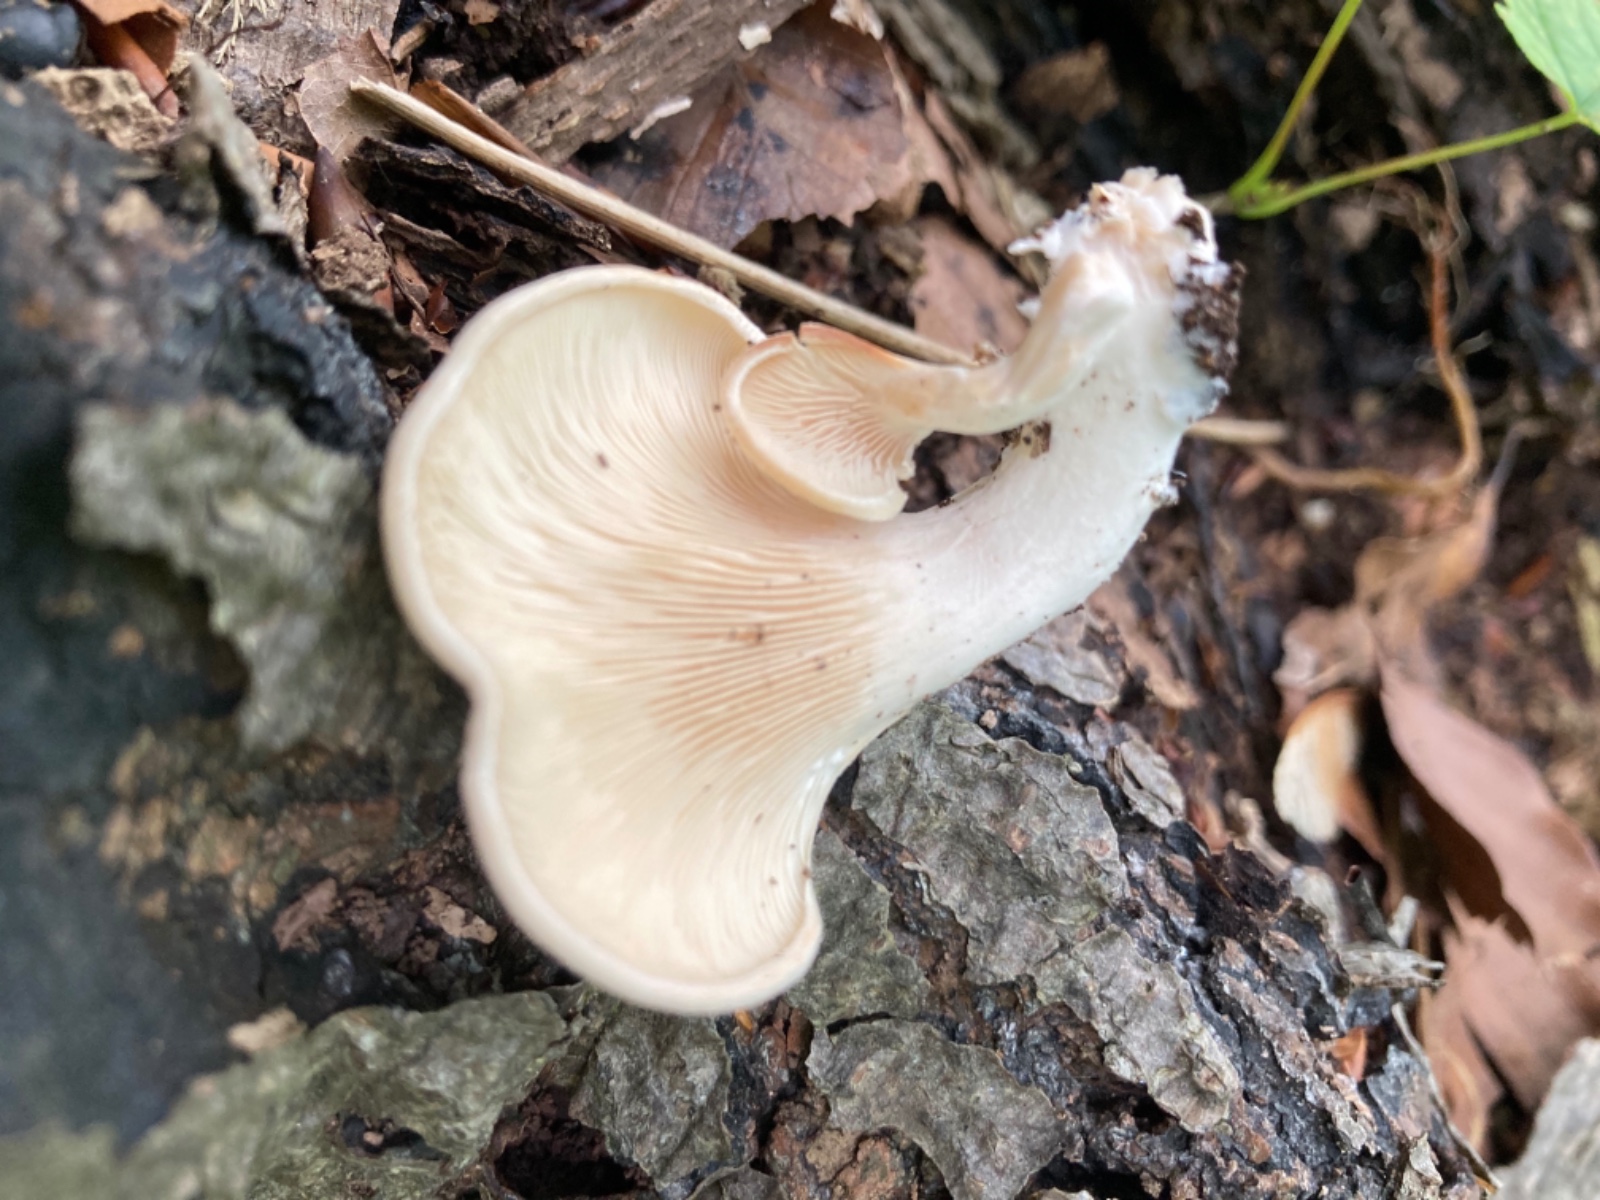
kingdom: Fungi
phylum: Basidiomycota
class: Agaricomycetes
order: Agaricales
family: Pleurotaceae
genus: Hohenbuehelia
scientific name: Hohenbuehelia auriscalpium
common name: spatel-filthat
